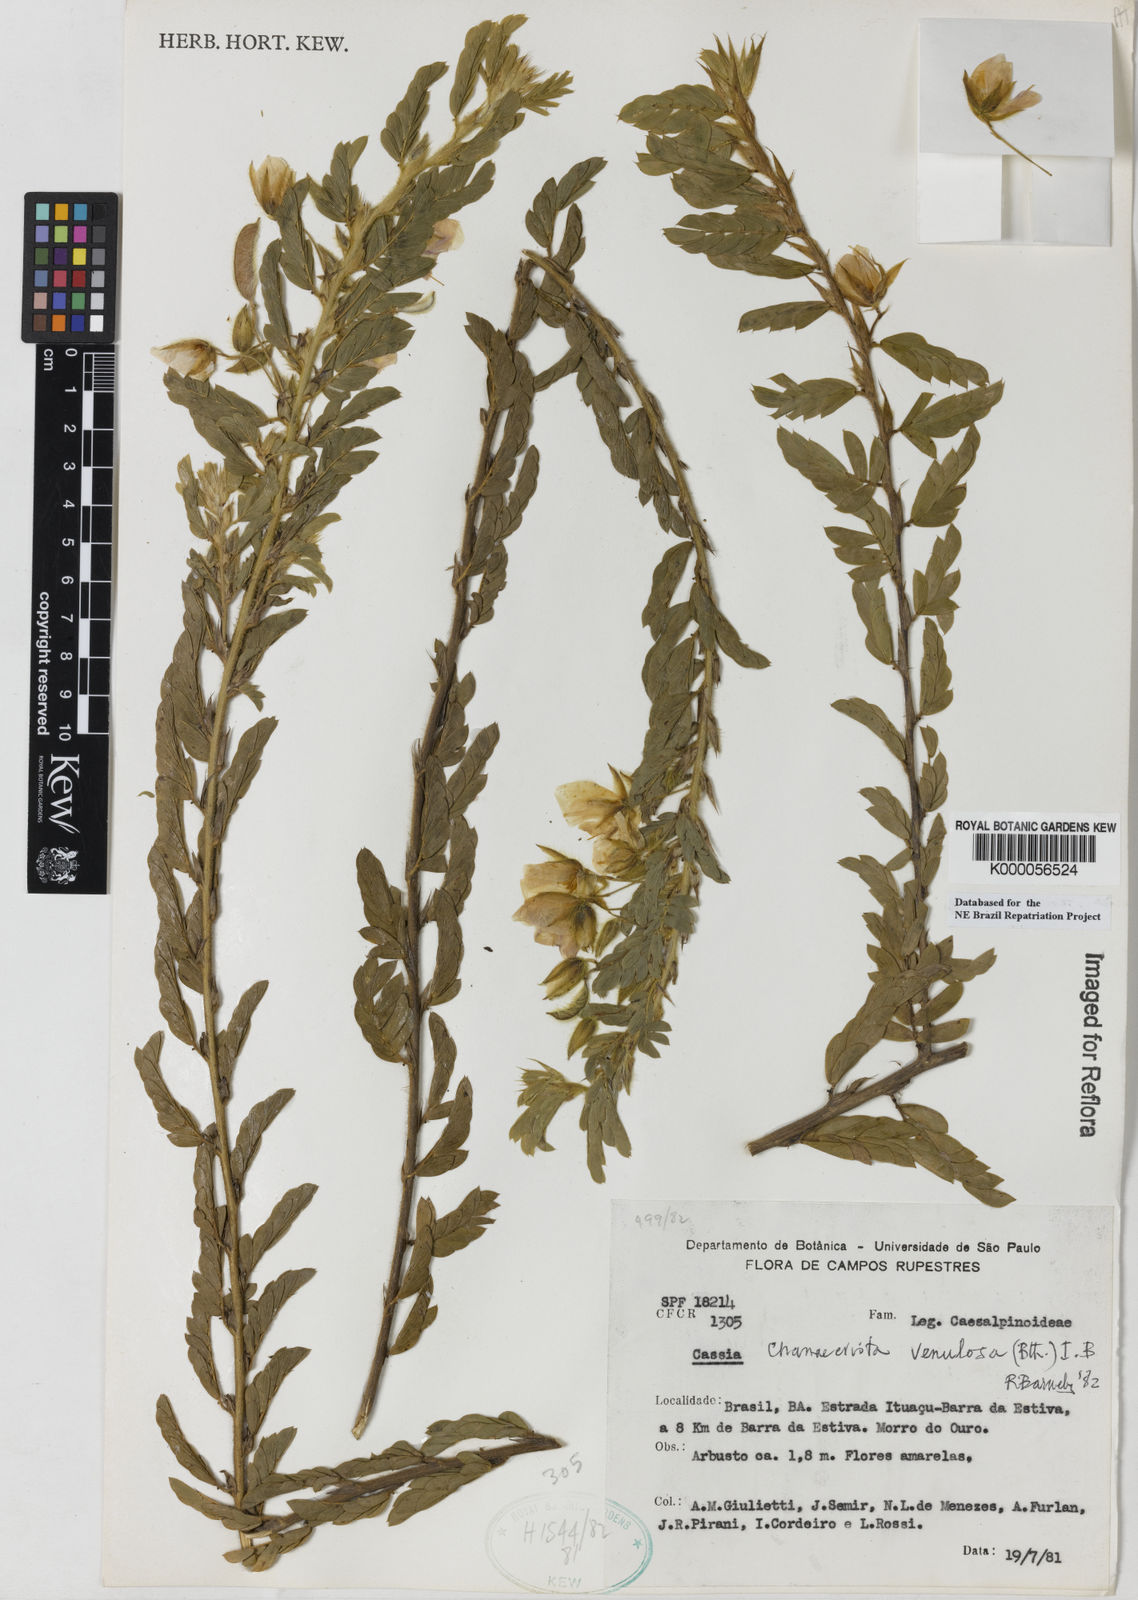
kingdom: Plantae
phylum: Tracheophyta
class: Magnoliopsida
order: Fabales
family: Fabaceae
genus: Chamaecrista
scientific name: Chamaecrista venulosa
